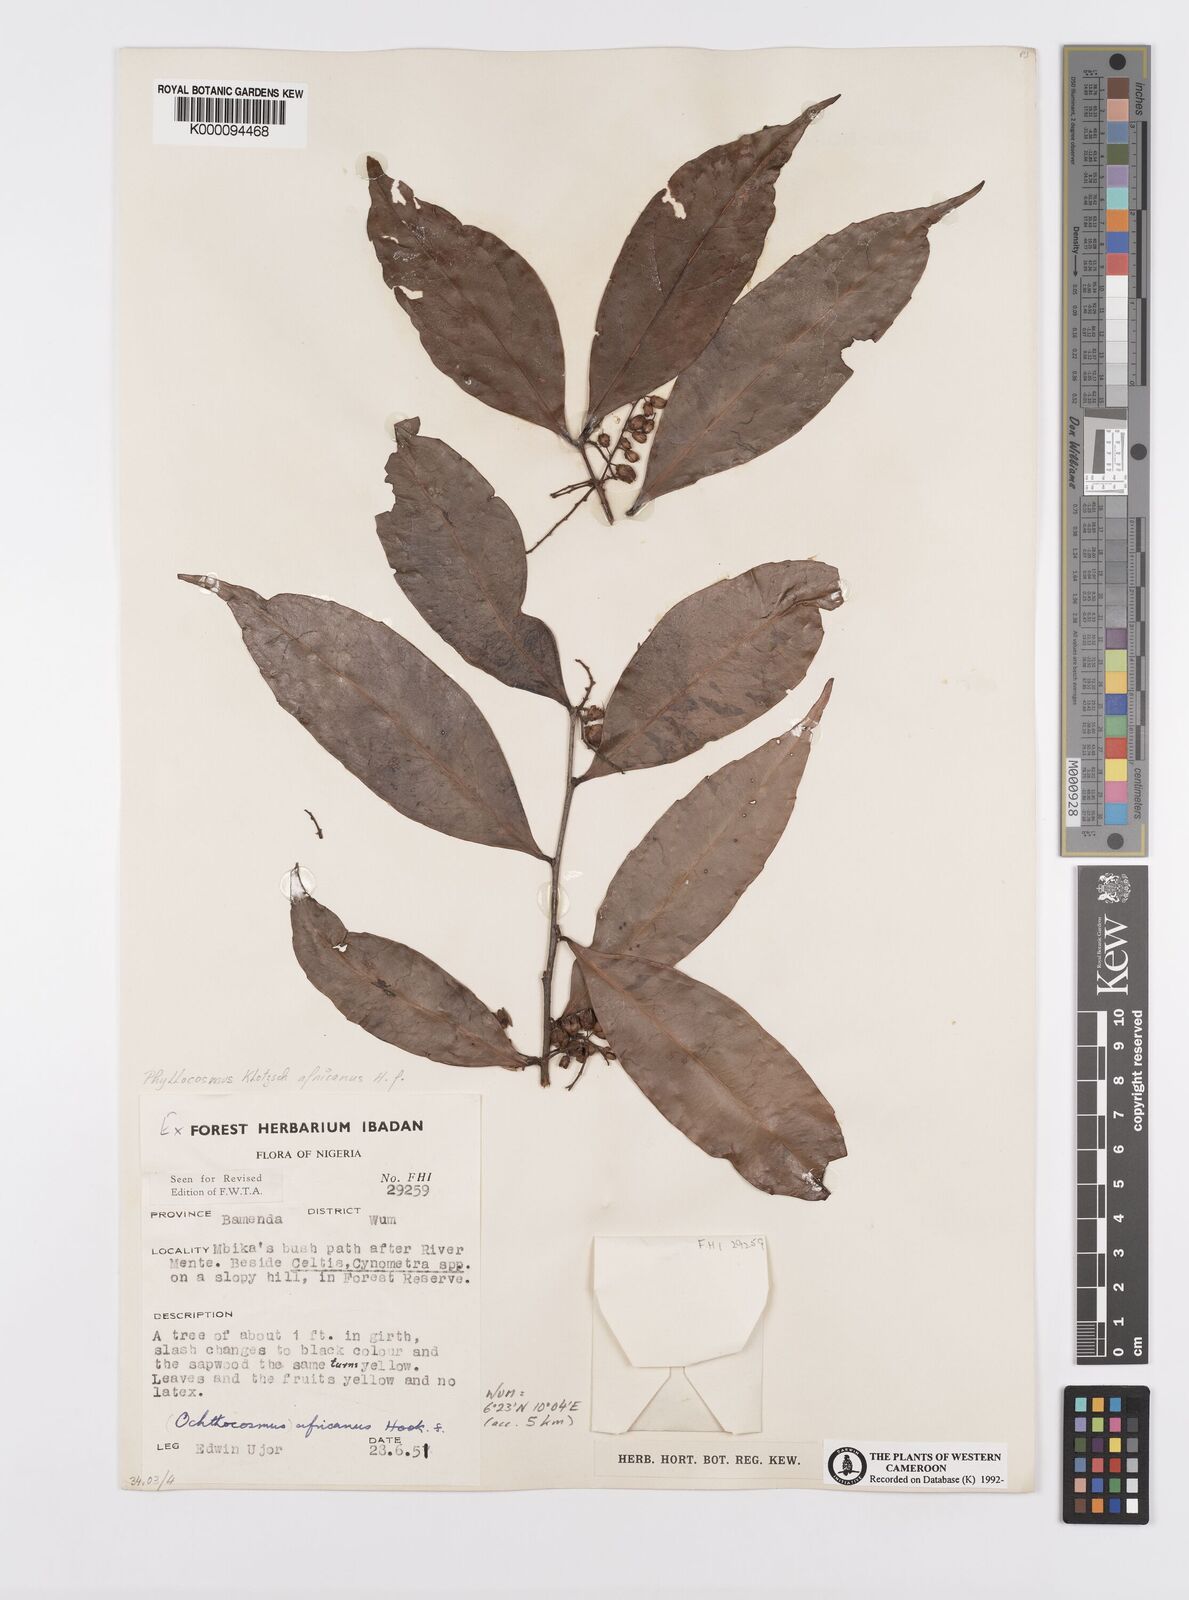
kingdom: Plantae
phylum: Tracheophyta
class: Magnoliopsida
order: Malpighiales
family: Ixonanthaceae
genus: Phyllocosmus
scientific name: Phyllocosmus africanus
